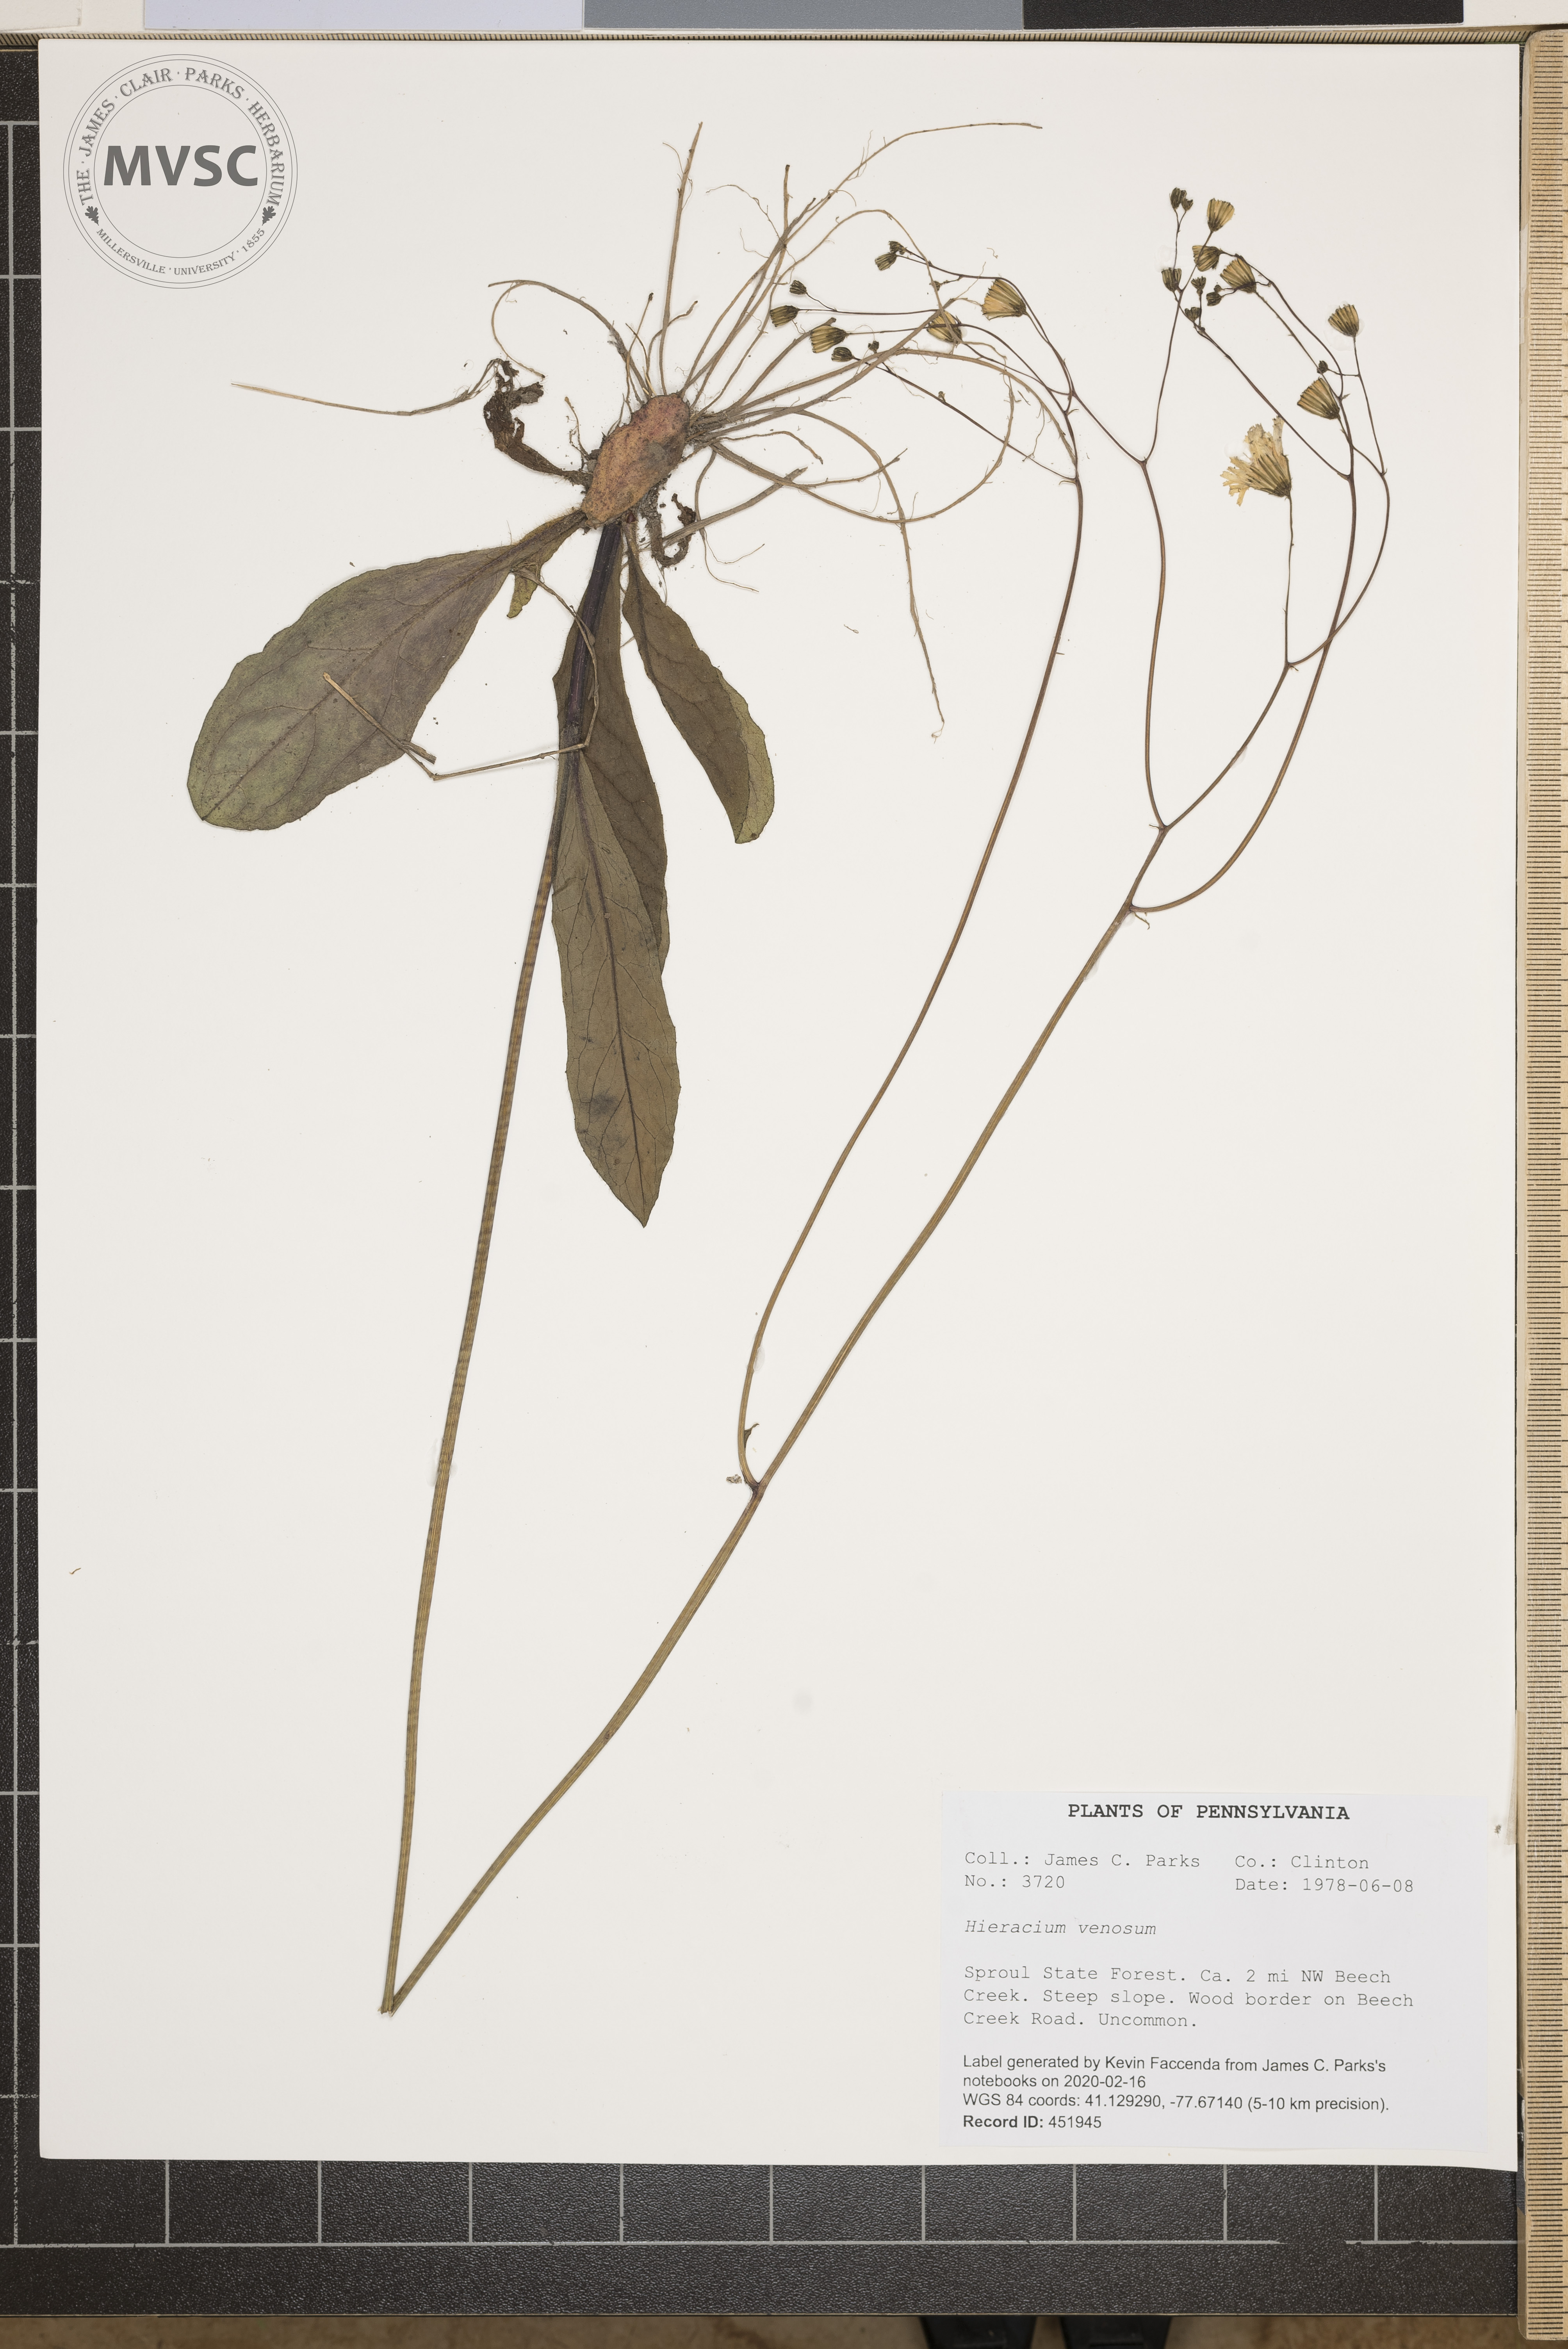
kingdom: Plantae
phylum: Tracheophyta
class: Magnoliopsida
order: Asterales
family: Asteraceae
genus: Hieracium
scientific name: Hieracium venosum
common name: Rattlesnake hawkweed
